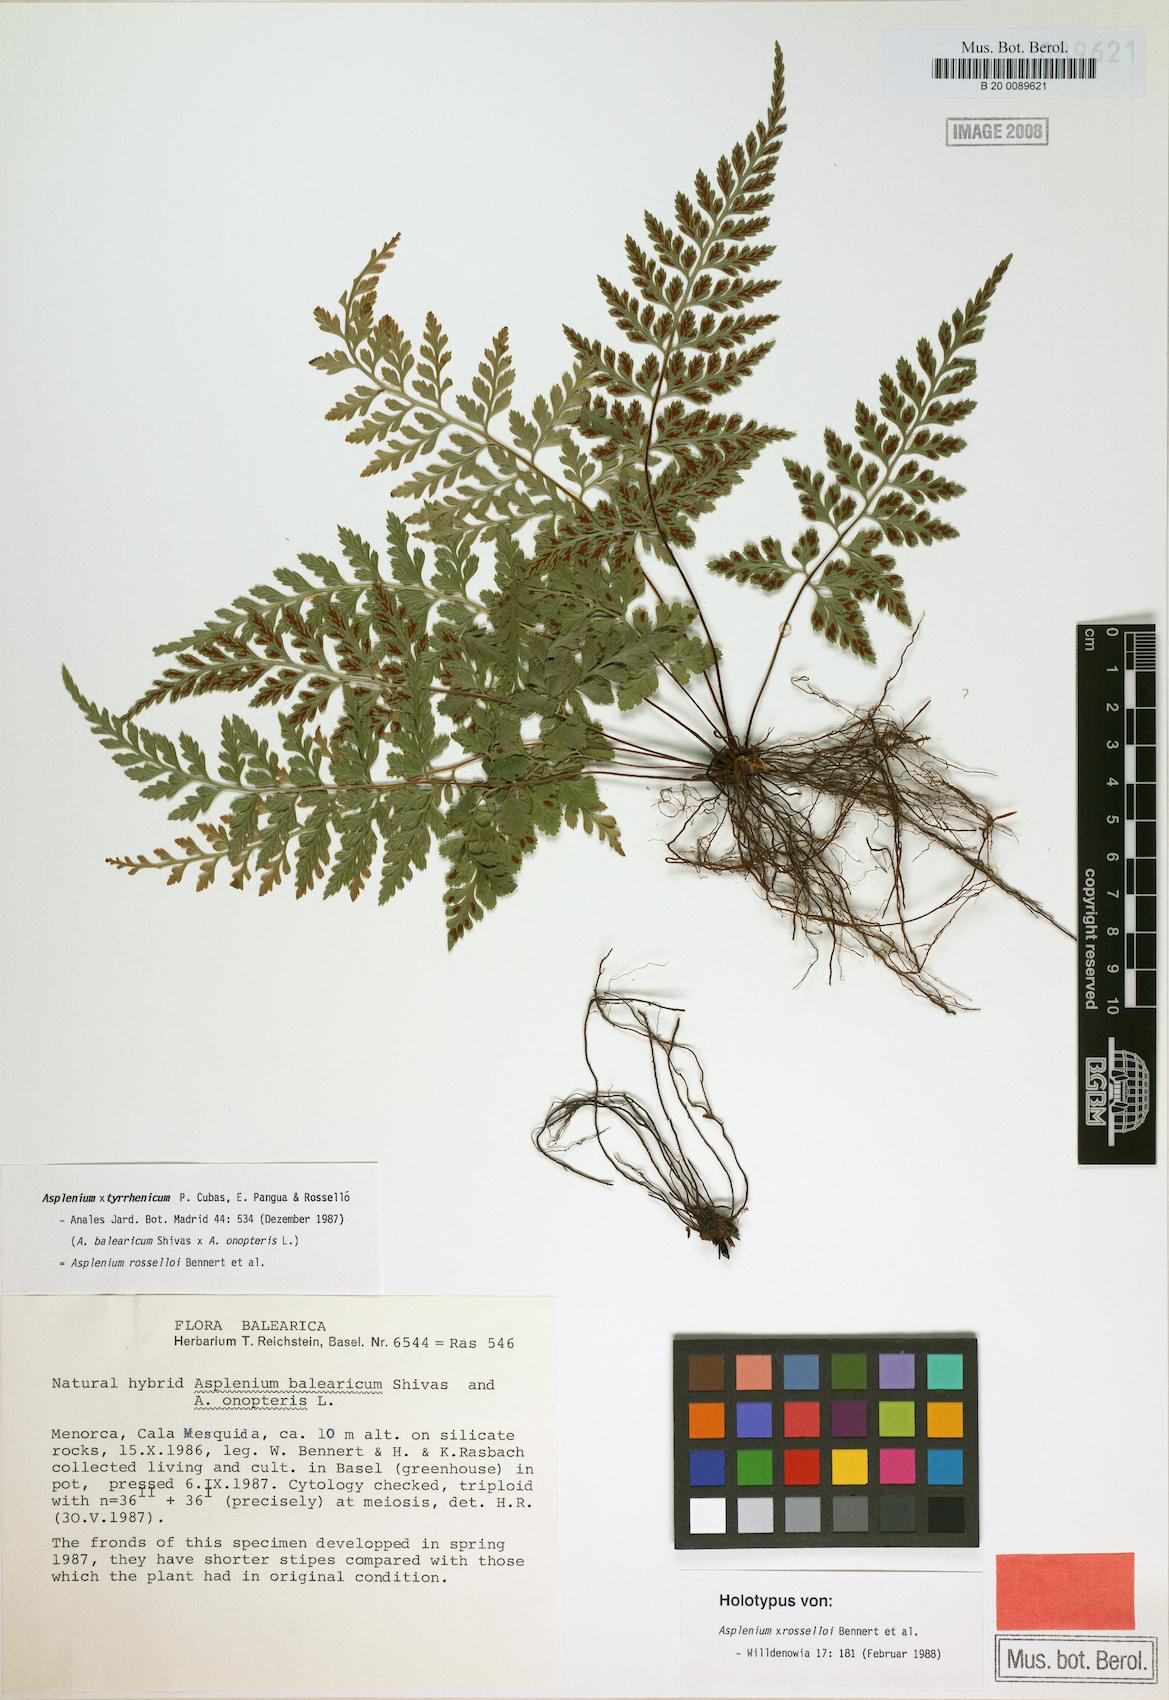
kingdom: Plantae
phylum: Tracheophyta
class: Polypodiopsida
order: Polypodiales
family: Aspleniaceae
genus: Asplenium
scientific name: Asplenium balearicum
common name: Balearean spleenwort
